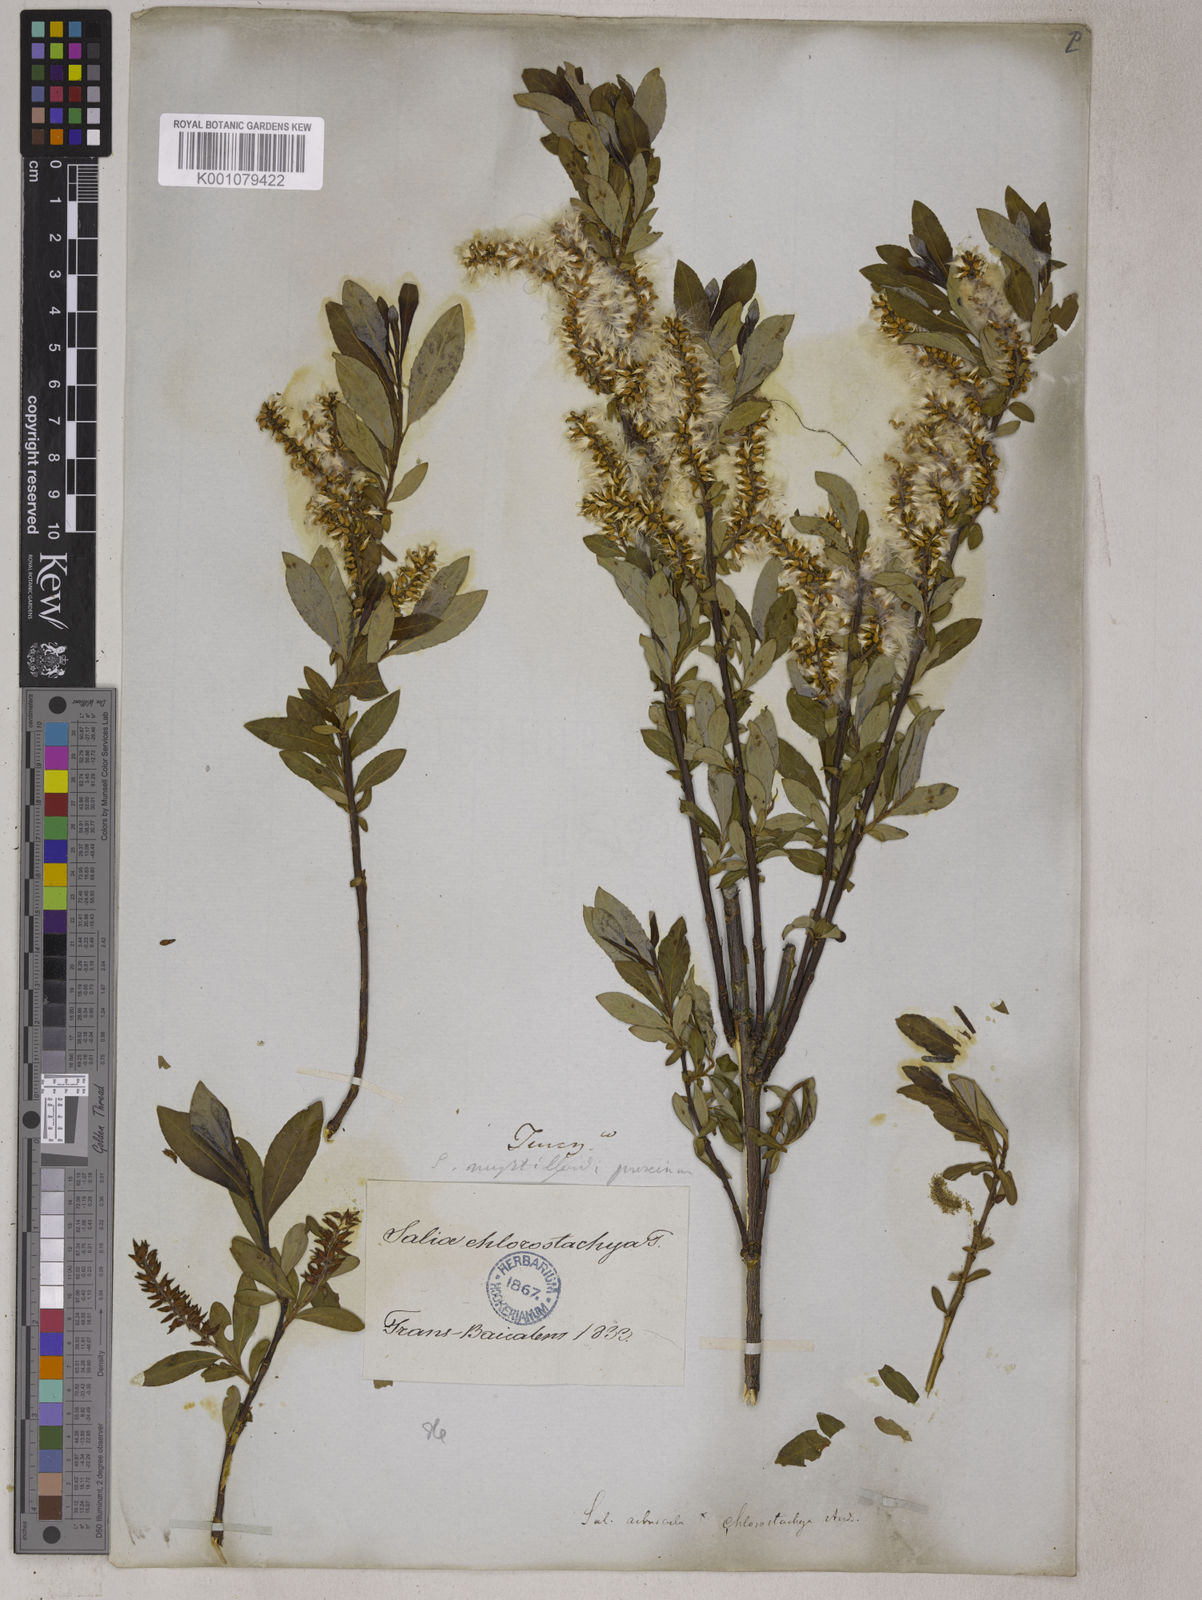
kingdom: Plantae
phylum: Tracheophyta
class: Magnoliopsida
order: Malpighiales
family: Salicaceae
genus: Salix
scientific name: Salix fuscescens
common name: Brownish willow
